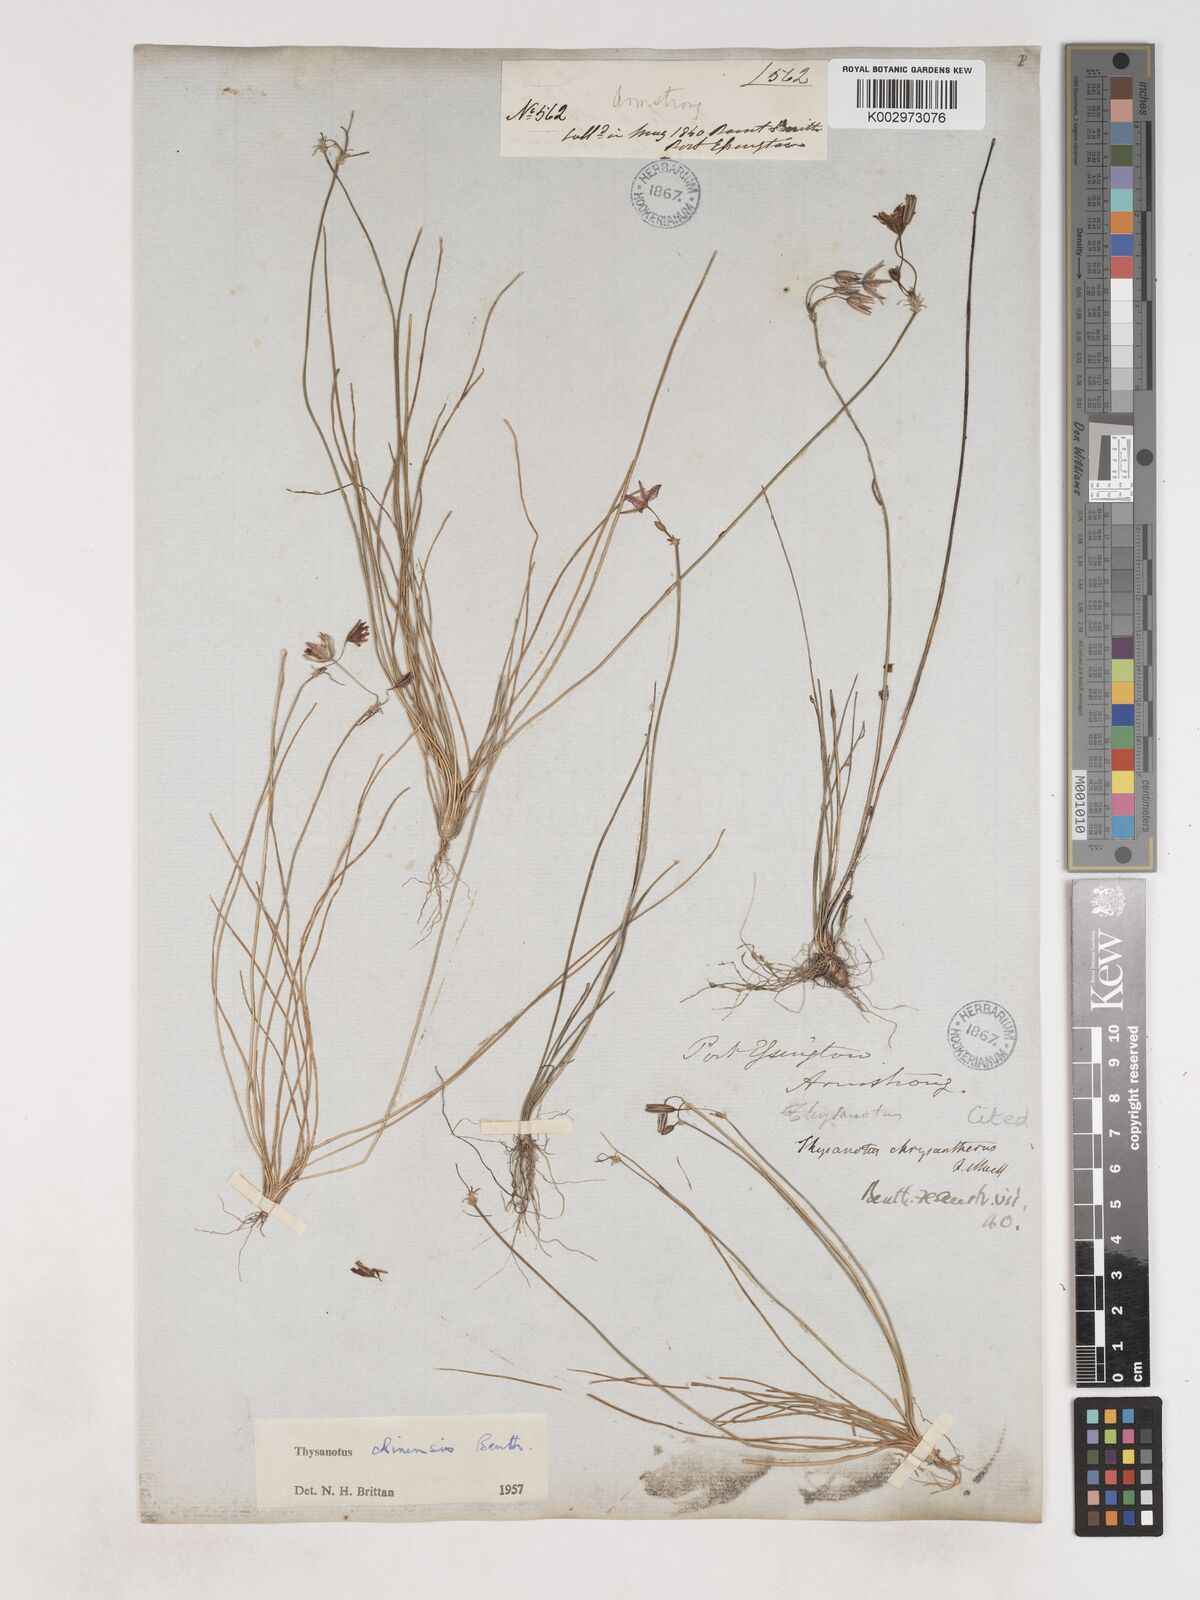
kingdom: Plantae
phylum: Tracheophyta
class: Liliopsida
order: Asparagales
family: Asparagaceae
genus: Thysanotus
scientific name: Thysanotus chinensis
